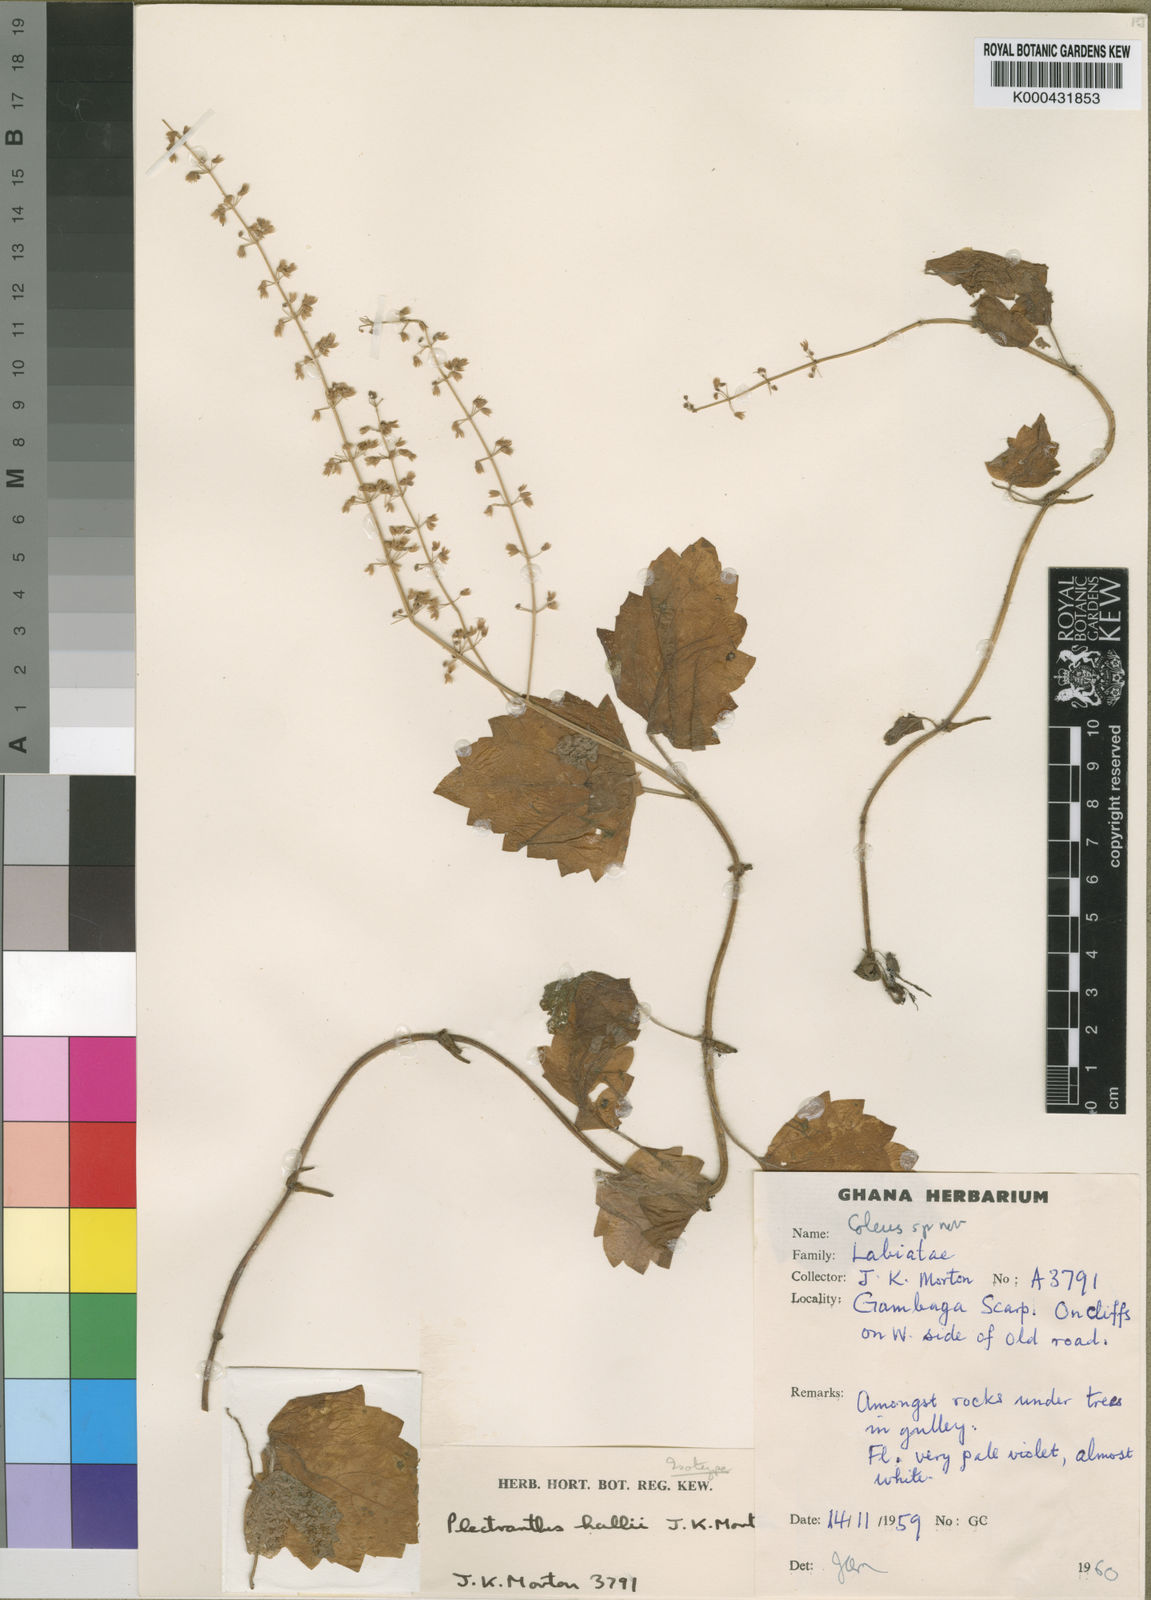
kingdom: Plantae
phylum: Tracheophyta
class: Magnoliopsida
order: Lamiales
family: Lamiaceae
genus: Coleus
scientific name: Coleus hallii
